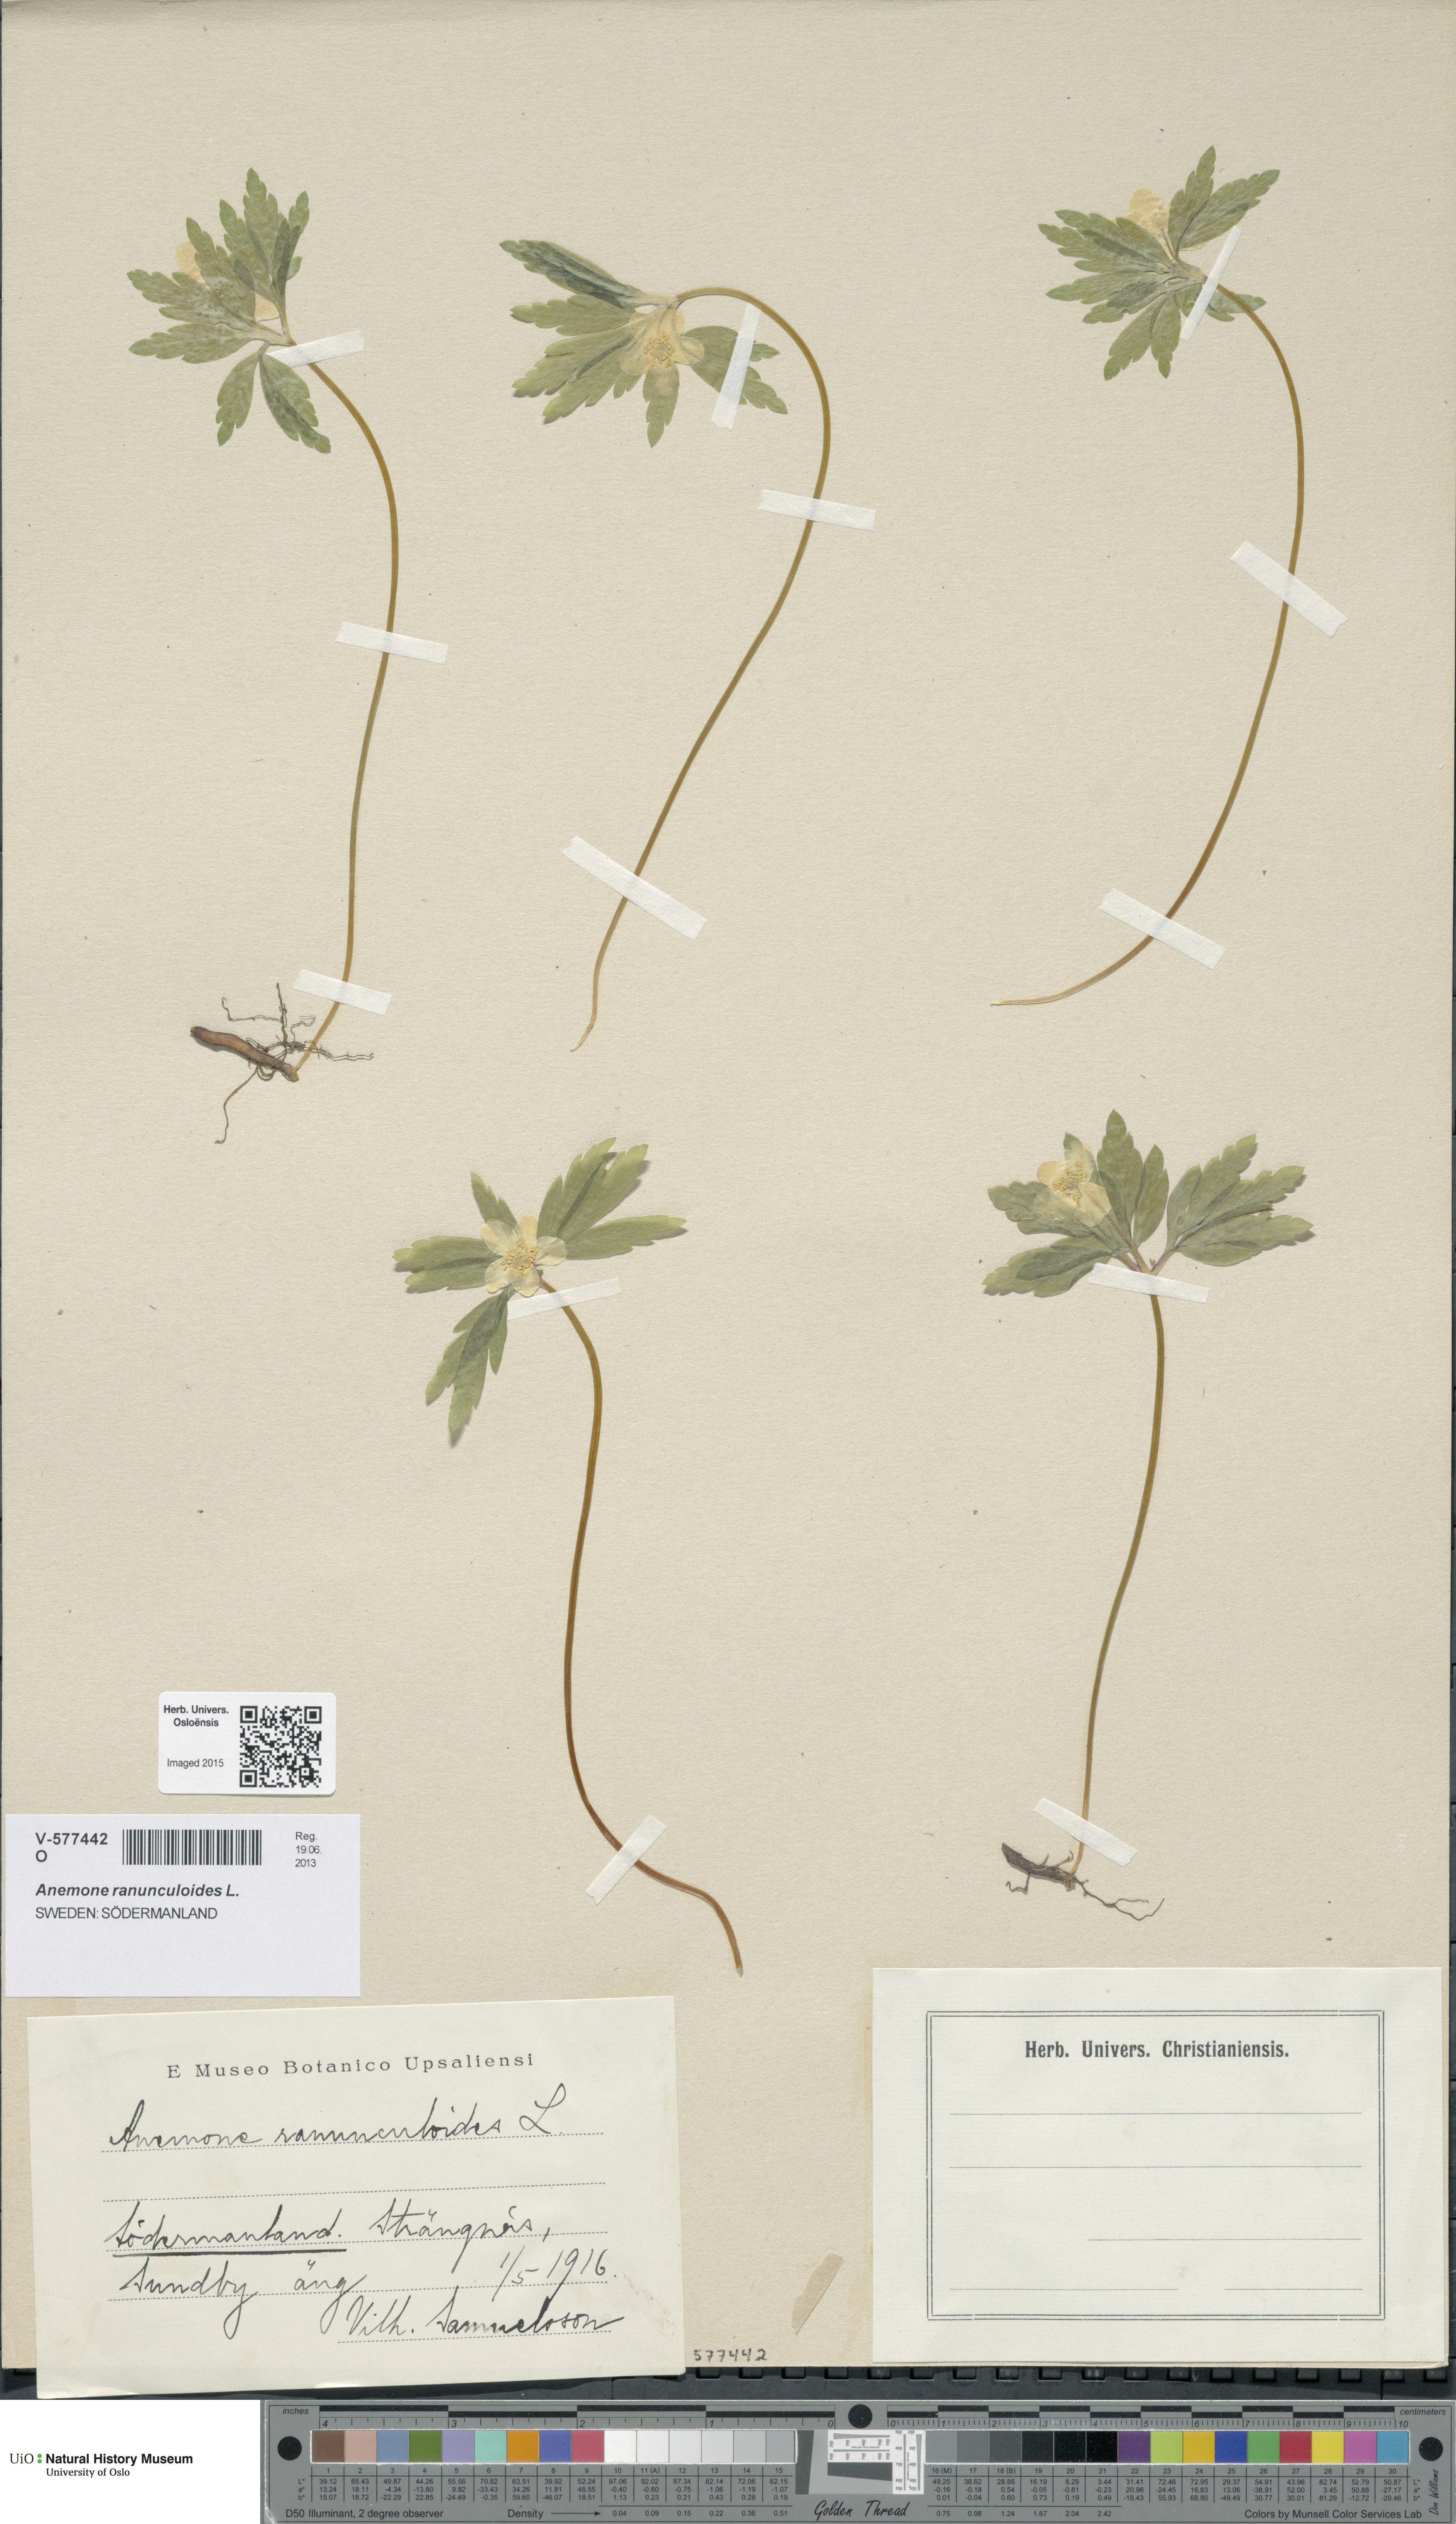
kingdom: Plantae
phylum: Tracheophyta
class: Magnoliopsida
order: Ranunculales
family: Ranunculaceae
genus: Anemone
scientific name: Anemone ranunculoides
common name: Yellow anemone
